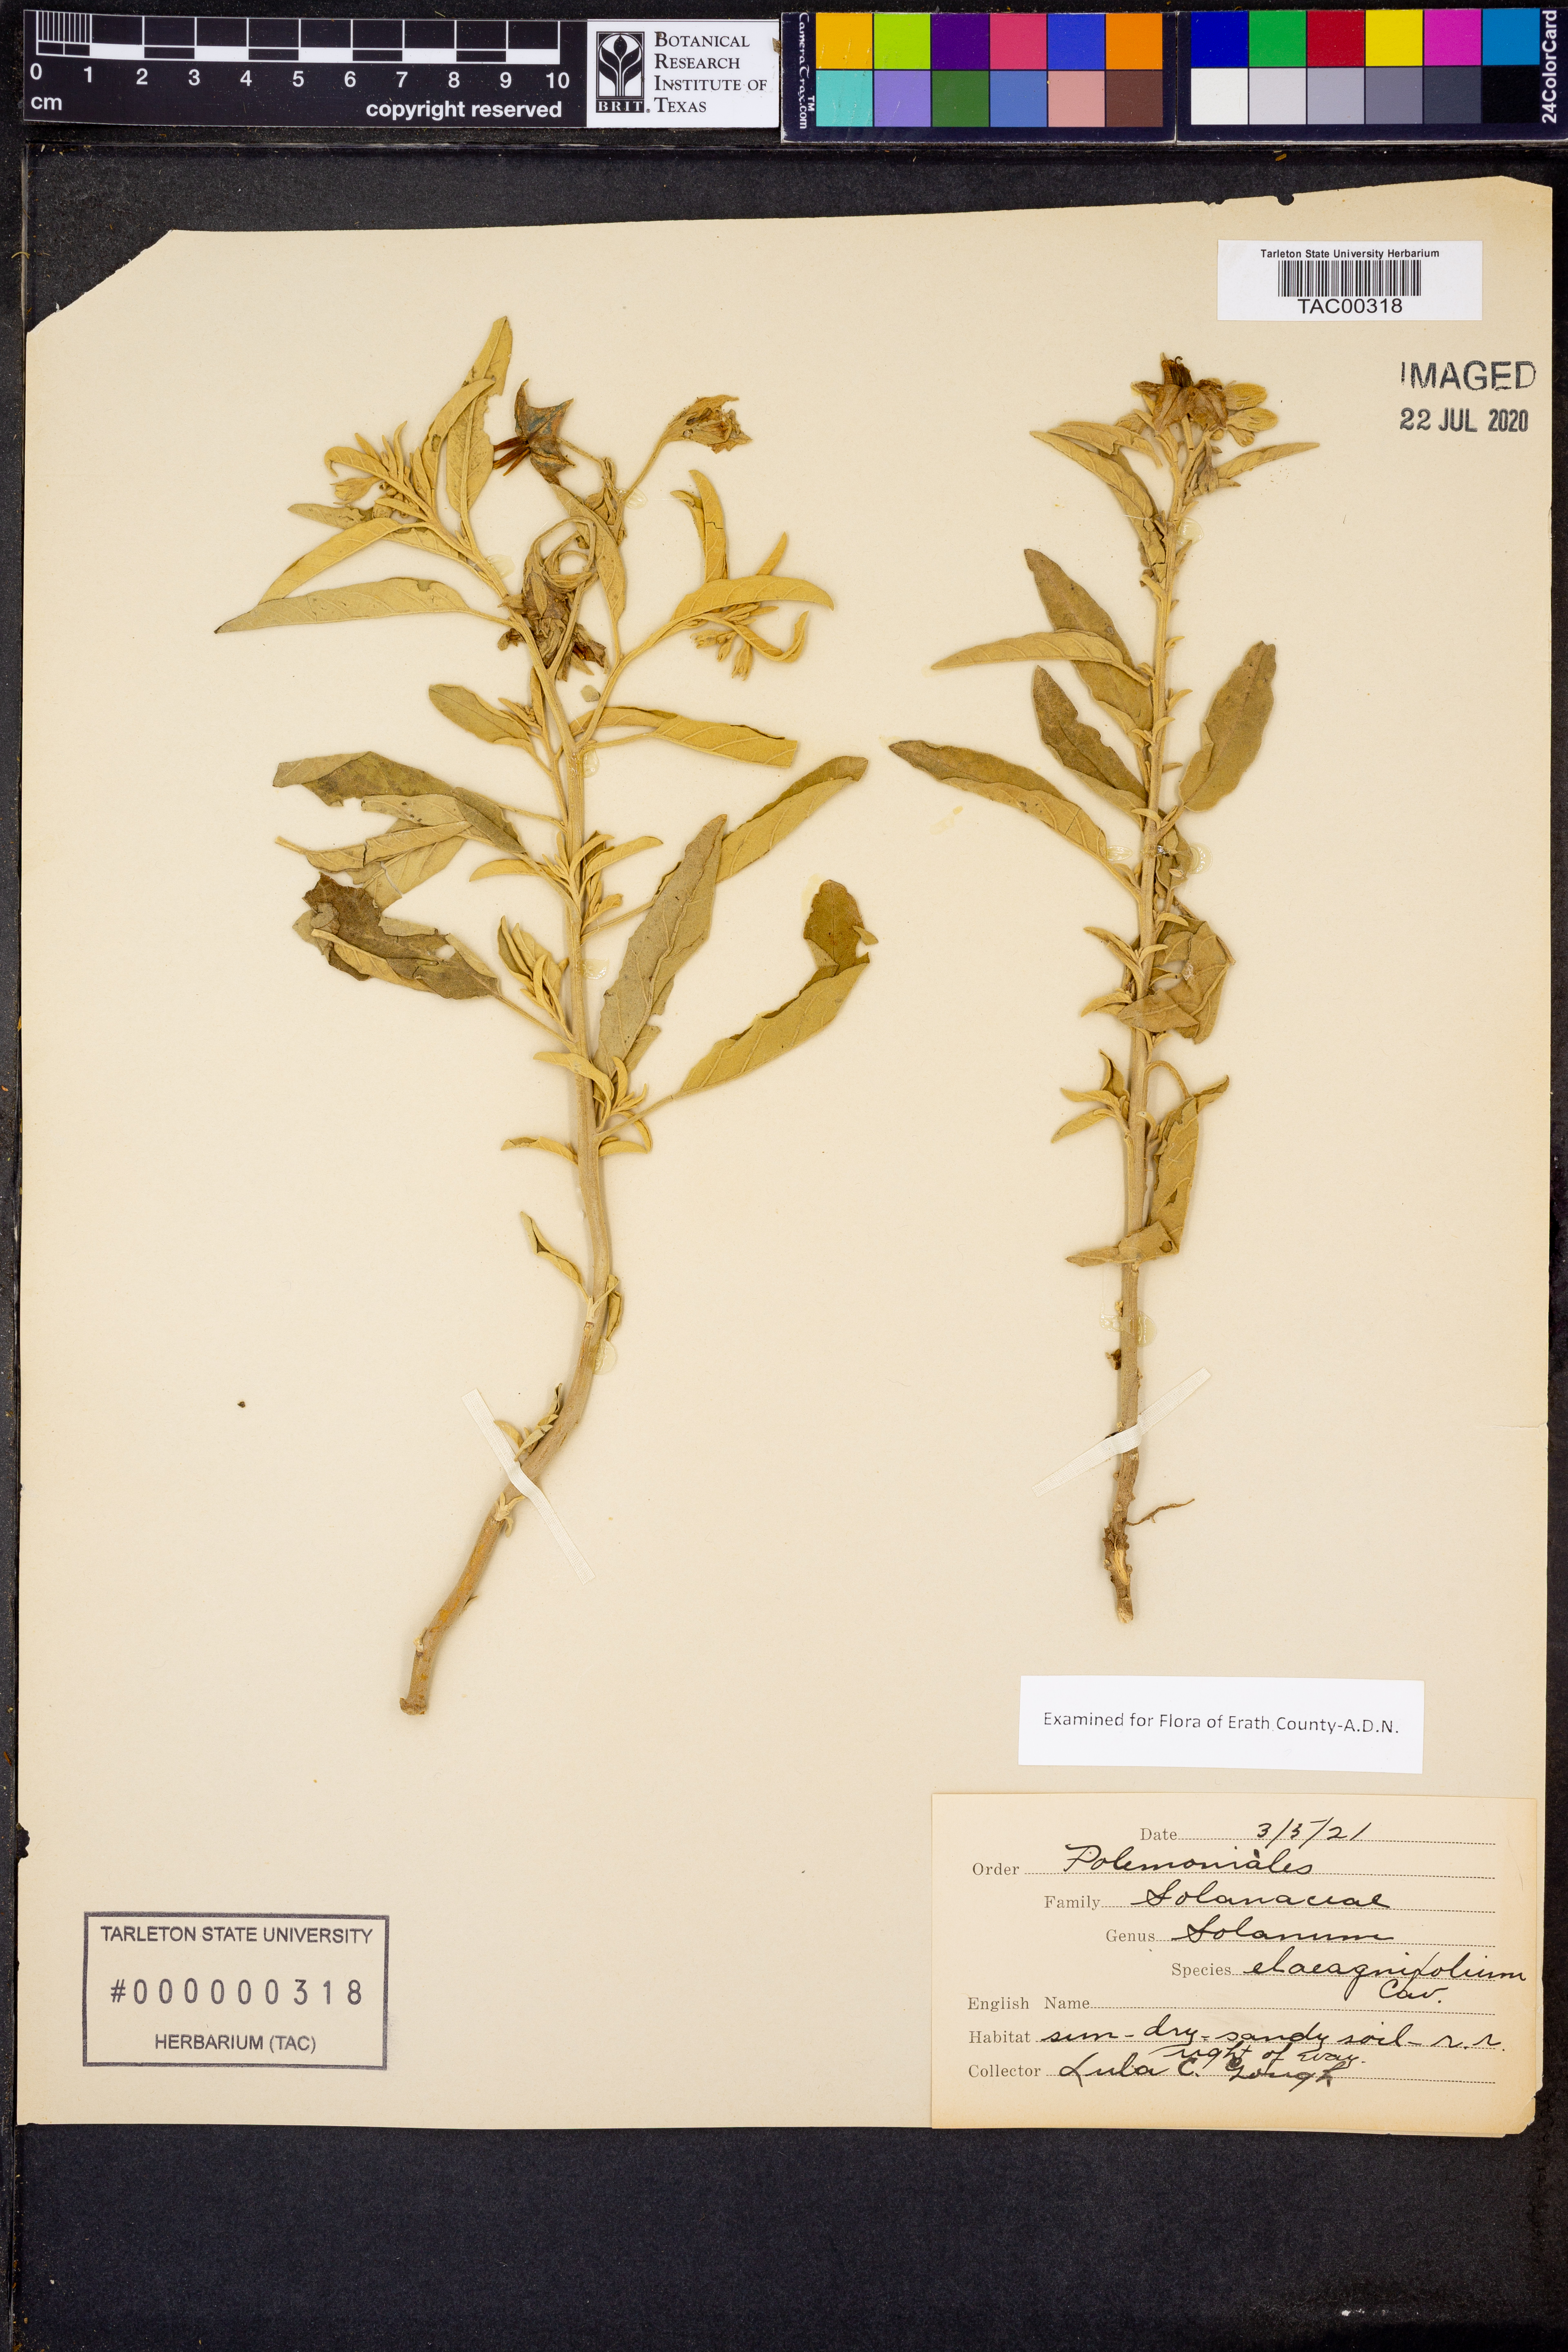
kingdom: Plantae
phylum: Tracheophyta
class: Magnoliopsida
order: Solanales
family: Solanaceae
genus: Solanum
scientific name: Solanum elaeagnifolium
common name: Silverleaf nightshade
